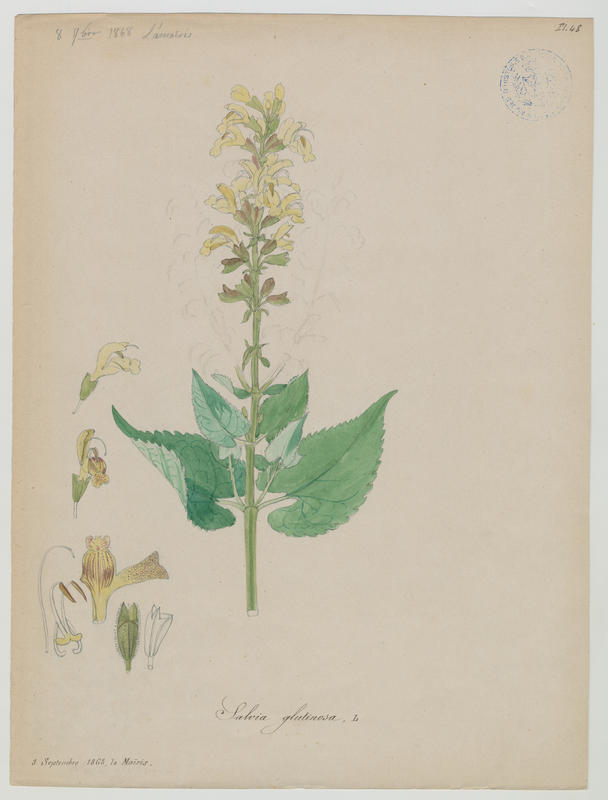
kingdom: Plantae
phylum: Tracheophyta
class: Magnoliopsida
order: Lamiales
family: Lamiaceae
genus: Salvia
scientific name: Salvia glutinosa
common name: Sticky clary
